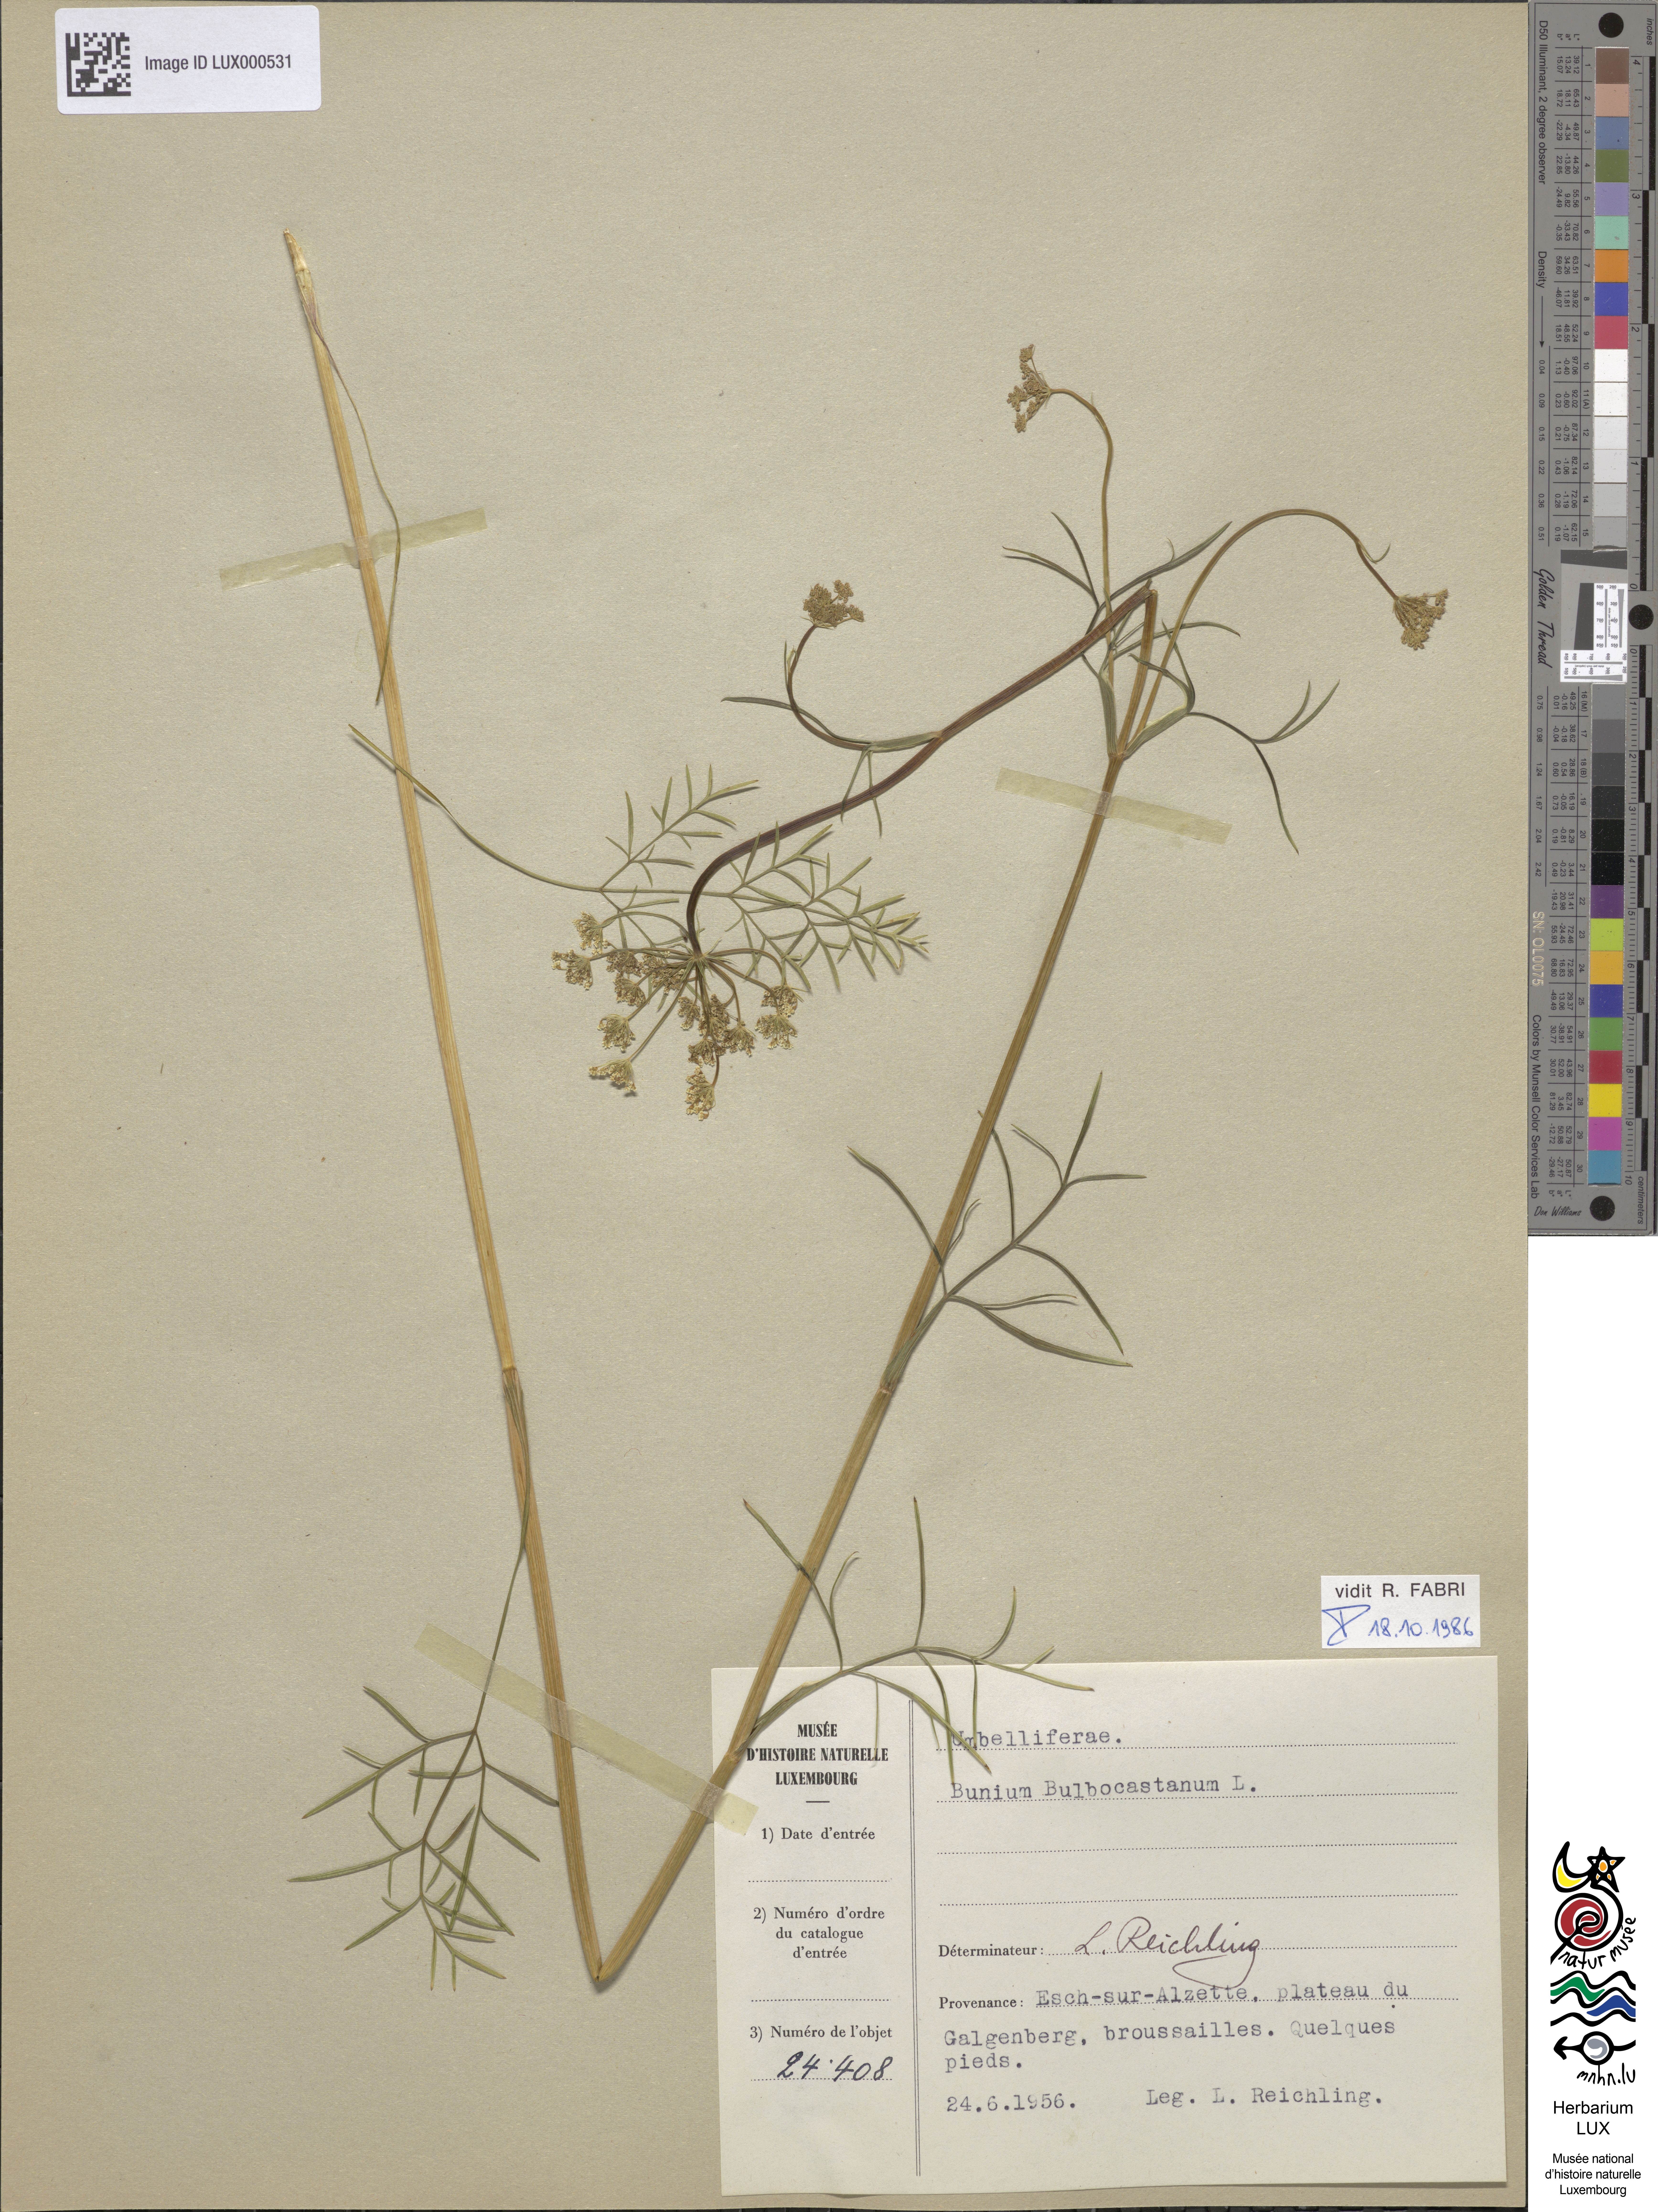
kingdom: Plantae
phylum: Tracheophyta
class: Magnoliopsida
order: Apiales
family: Apiaceae
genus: Bunium
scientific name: Bunium bulbocastanum
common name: Great pignut
